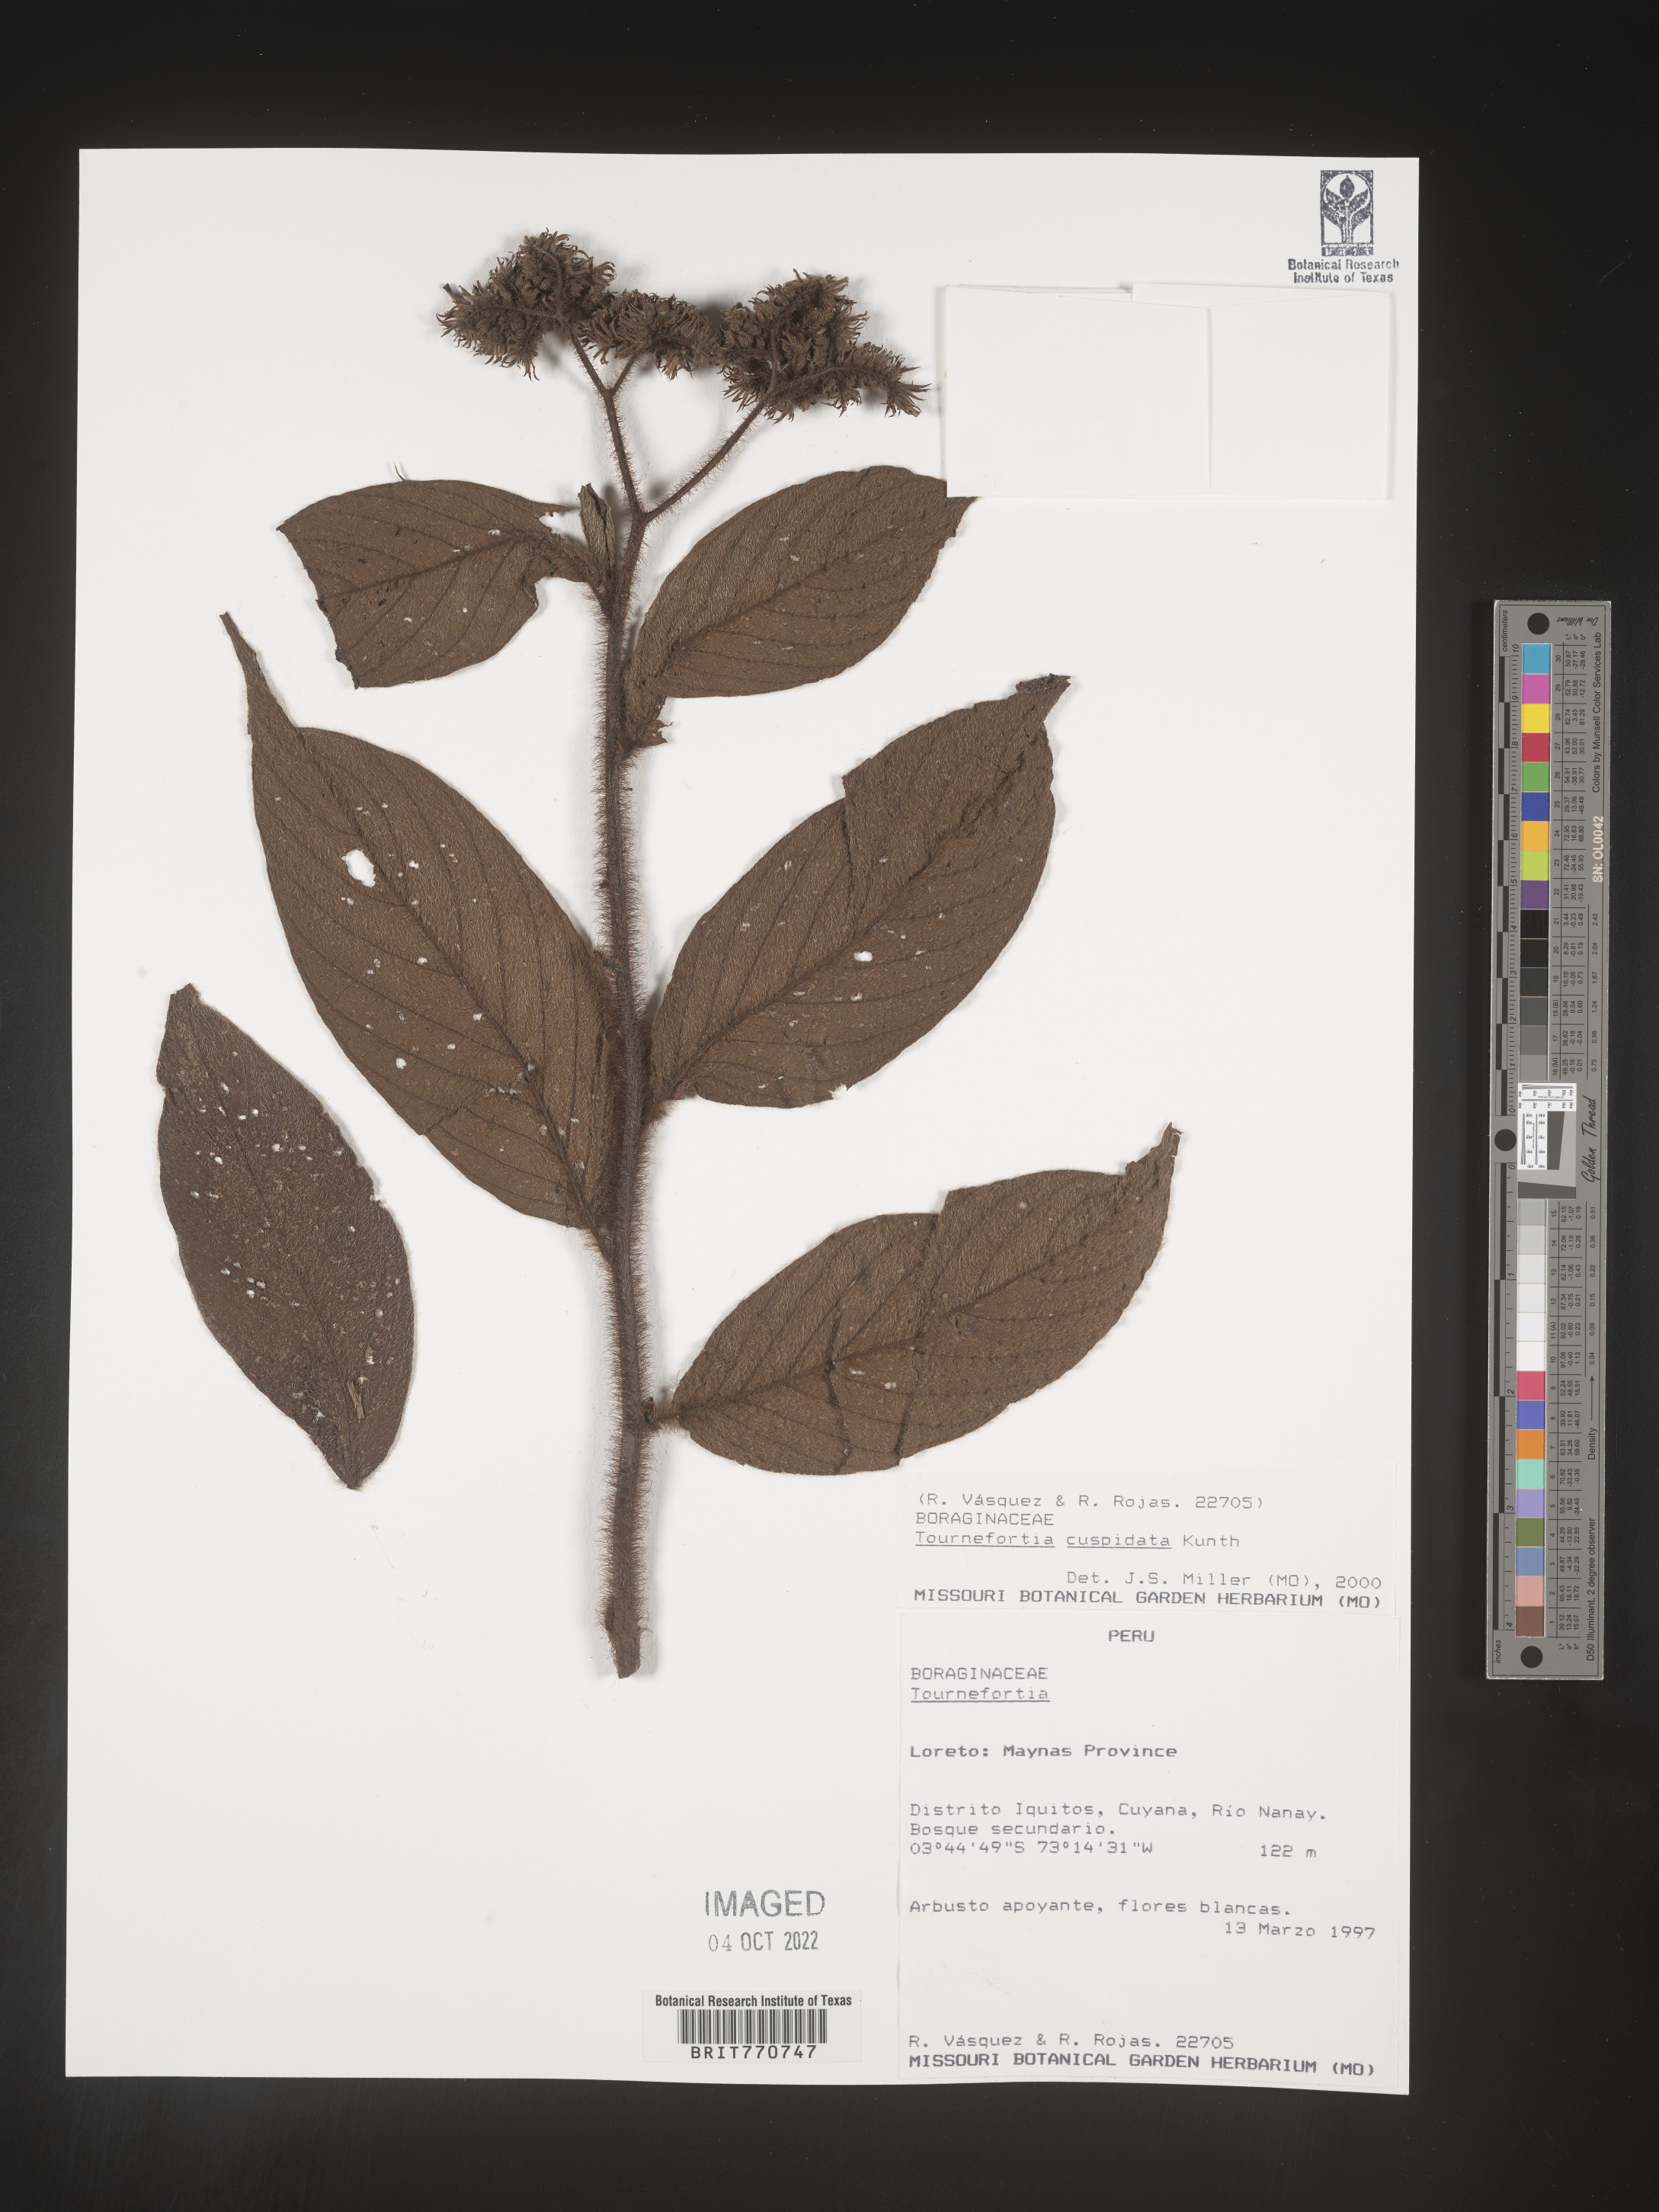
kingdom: Plantae
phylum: Tracheophyta
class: Magnoliopsida
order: Boraginales
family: Heliotropiaceae
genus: Tournefortia
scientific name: Tournefortia
